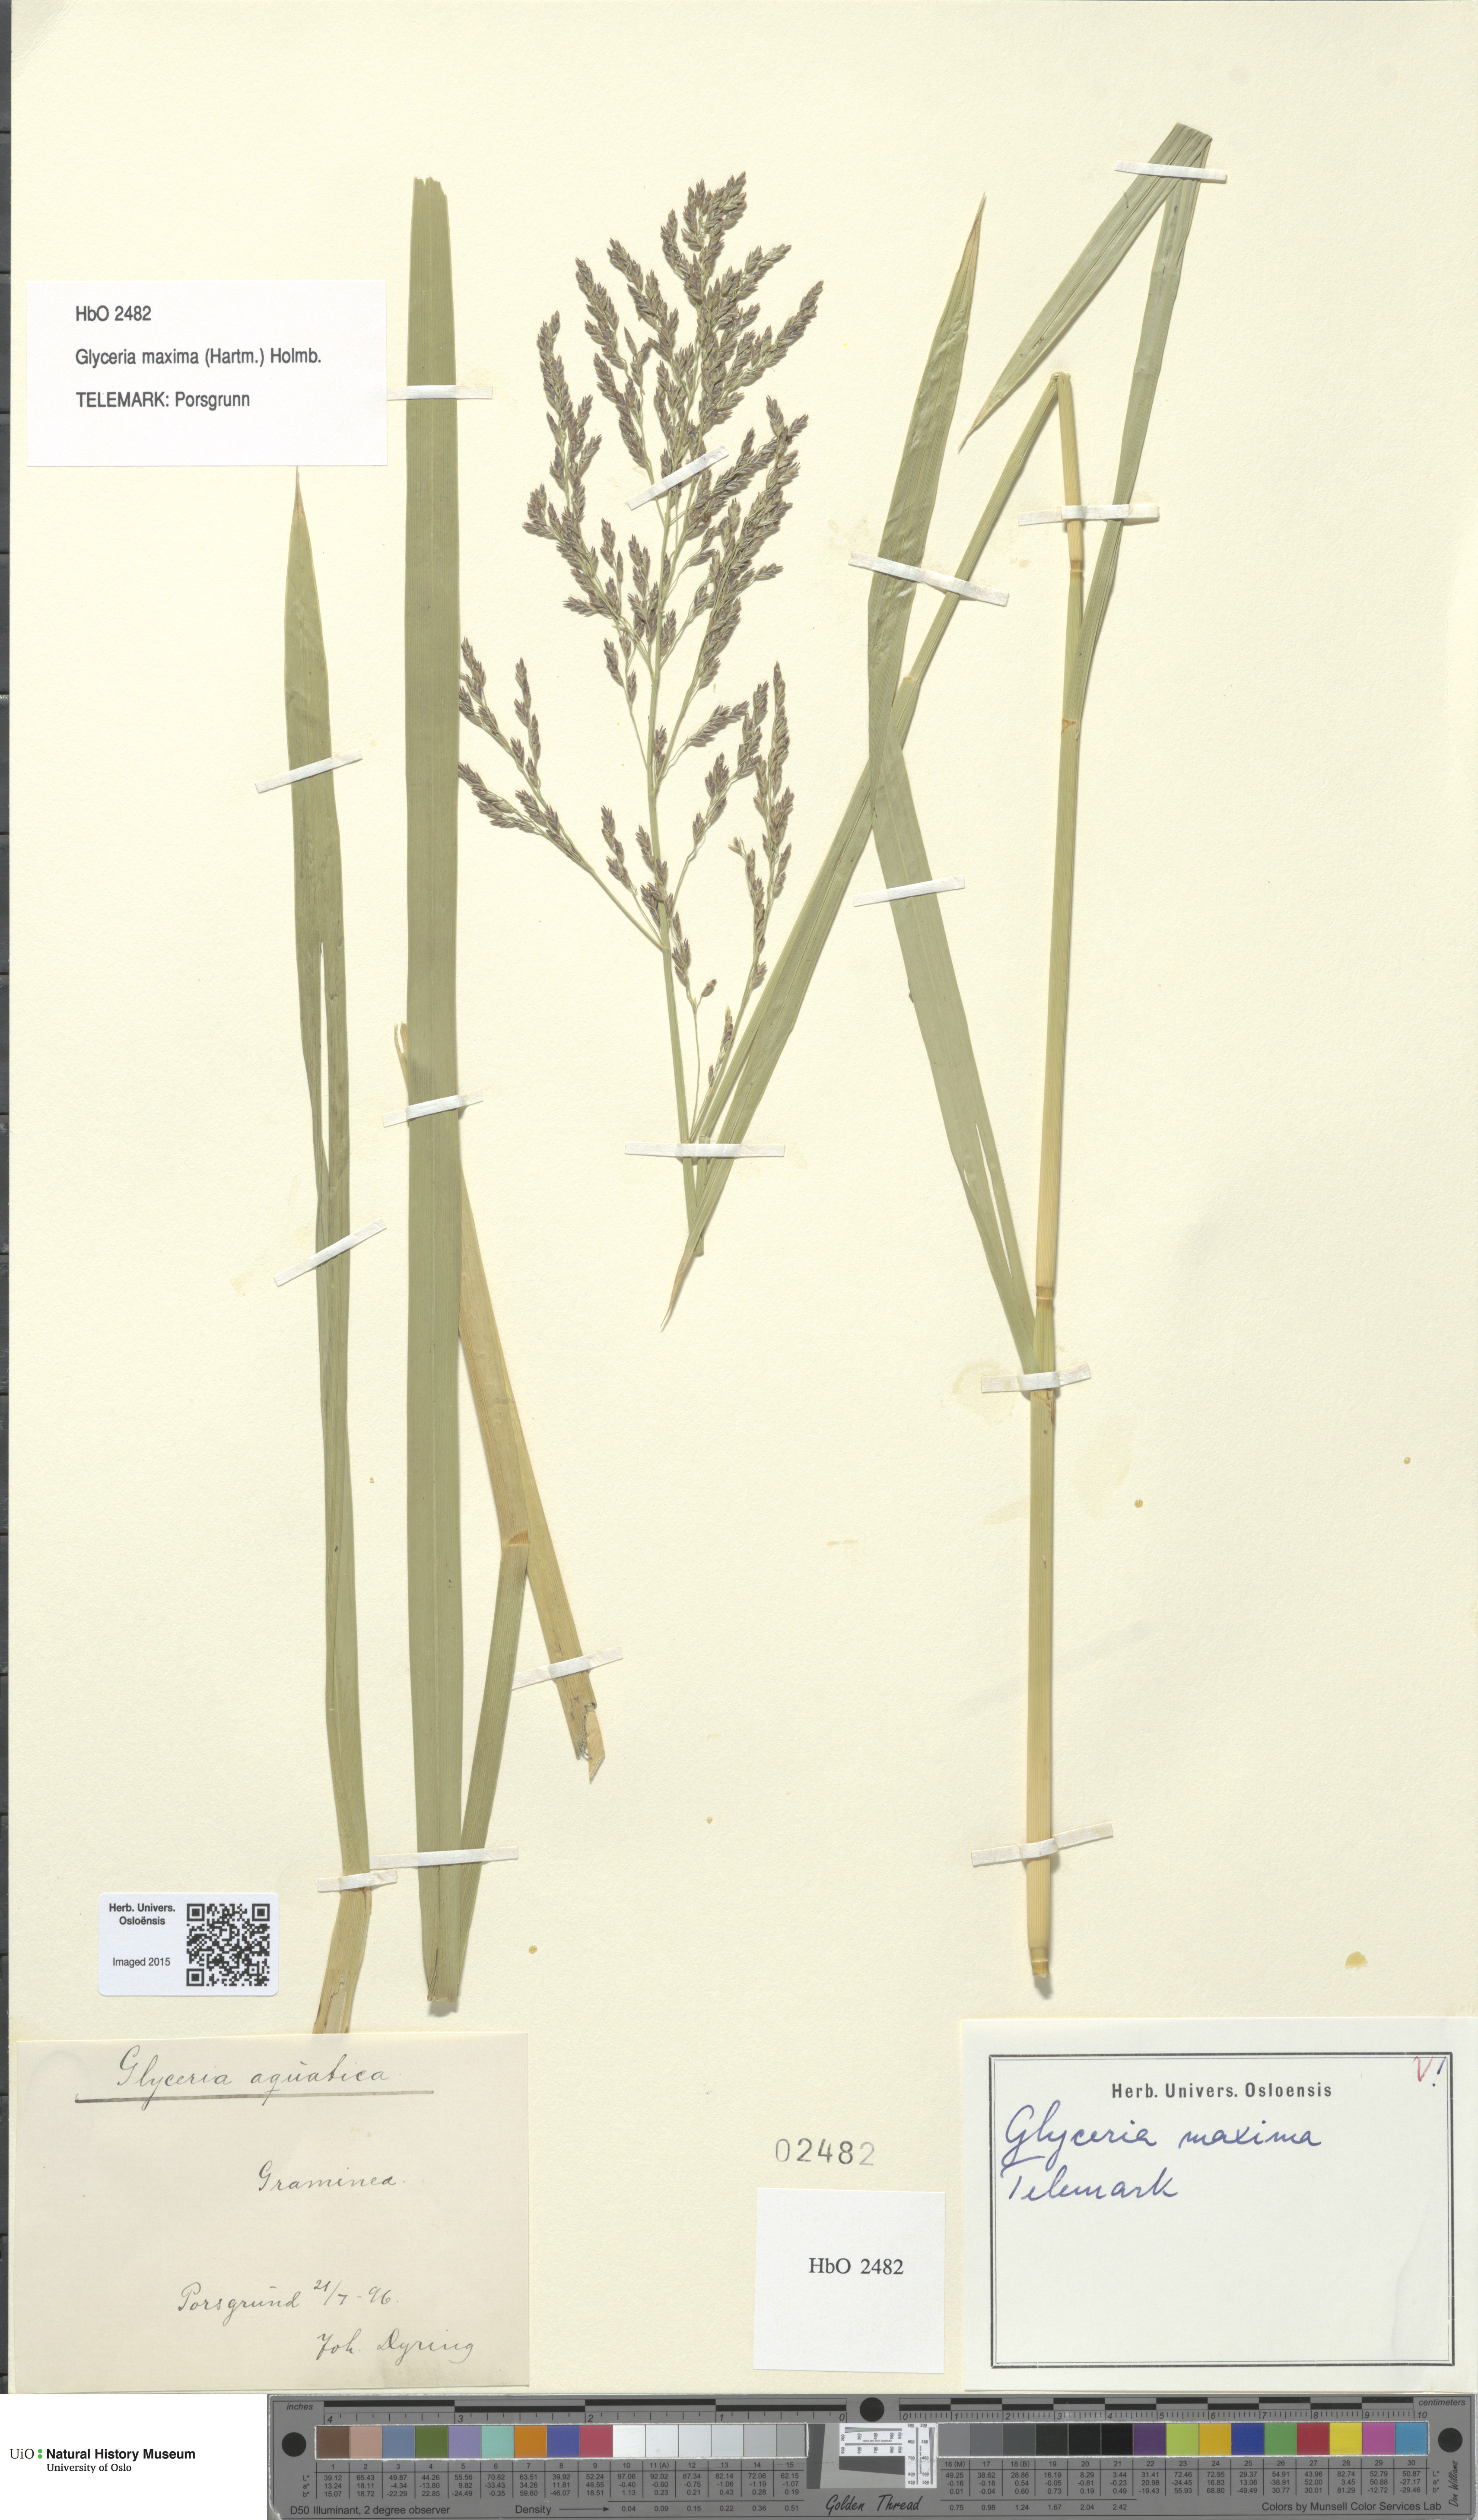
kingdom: Plantae
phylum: Tracheophyta
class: Liliopsida
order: Poales
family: Poaceae
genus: Glyceria
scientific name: Glyceria maxima
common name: Reed mannagrass
